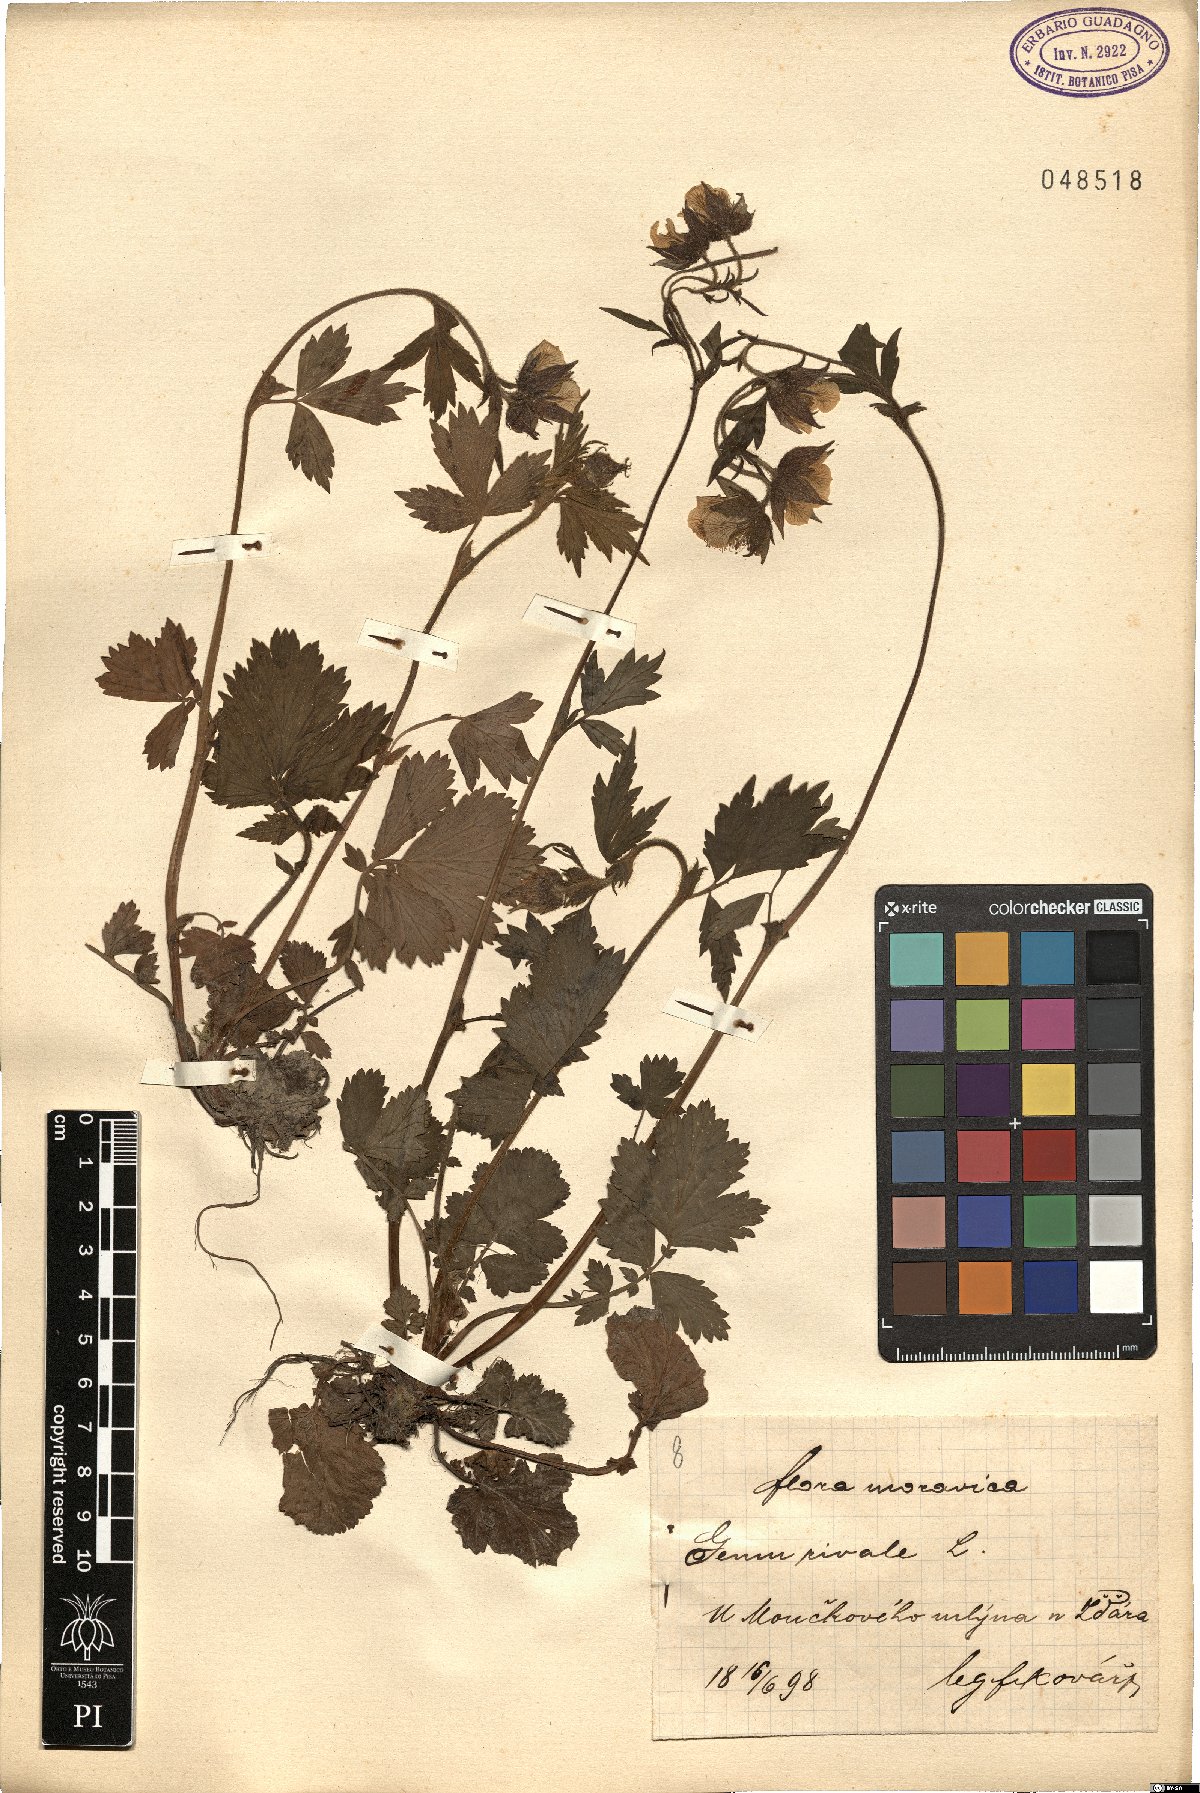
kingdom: Plantae
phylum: Tracheophyta
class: Magnoliopsida
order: Rosales
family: Rosaceae
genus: Geum
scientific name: Geum rivale
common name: Water avens
